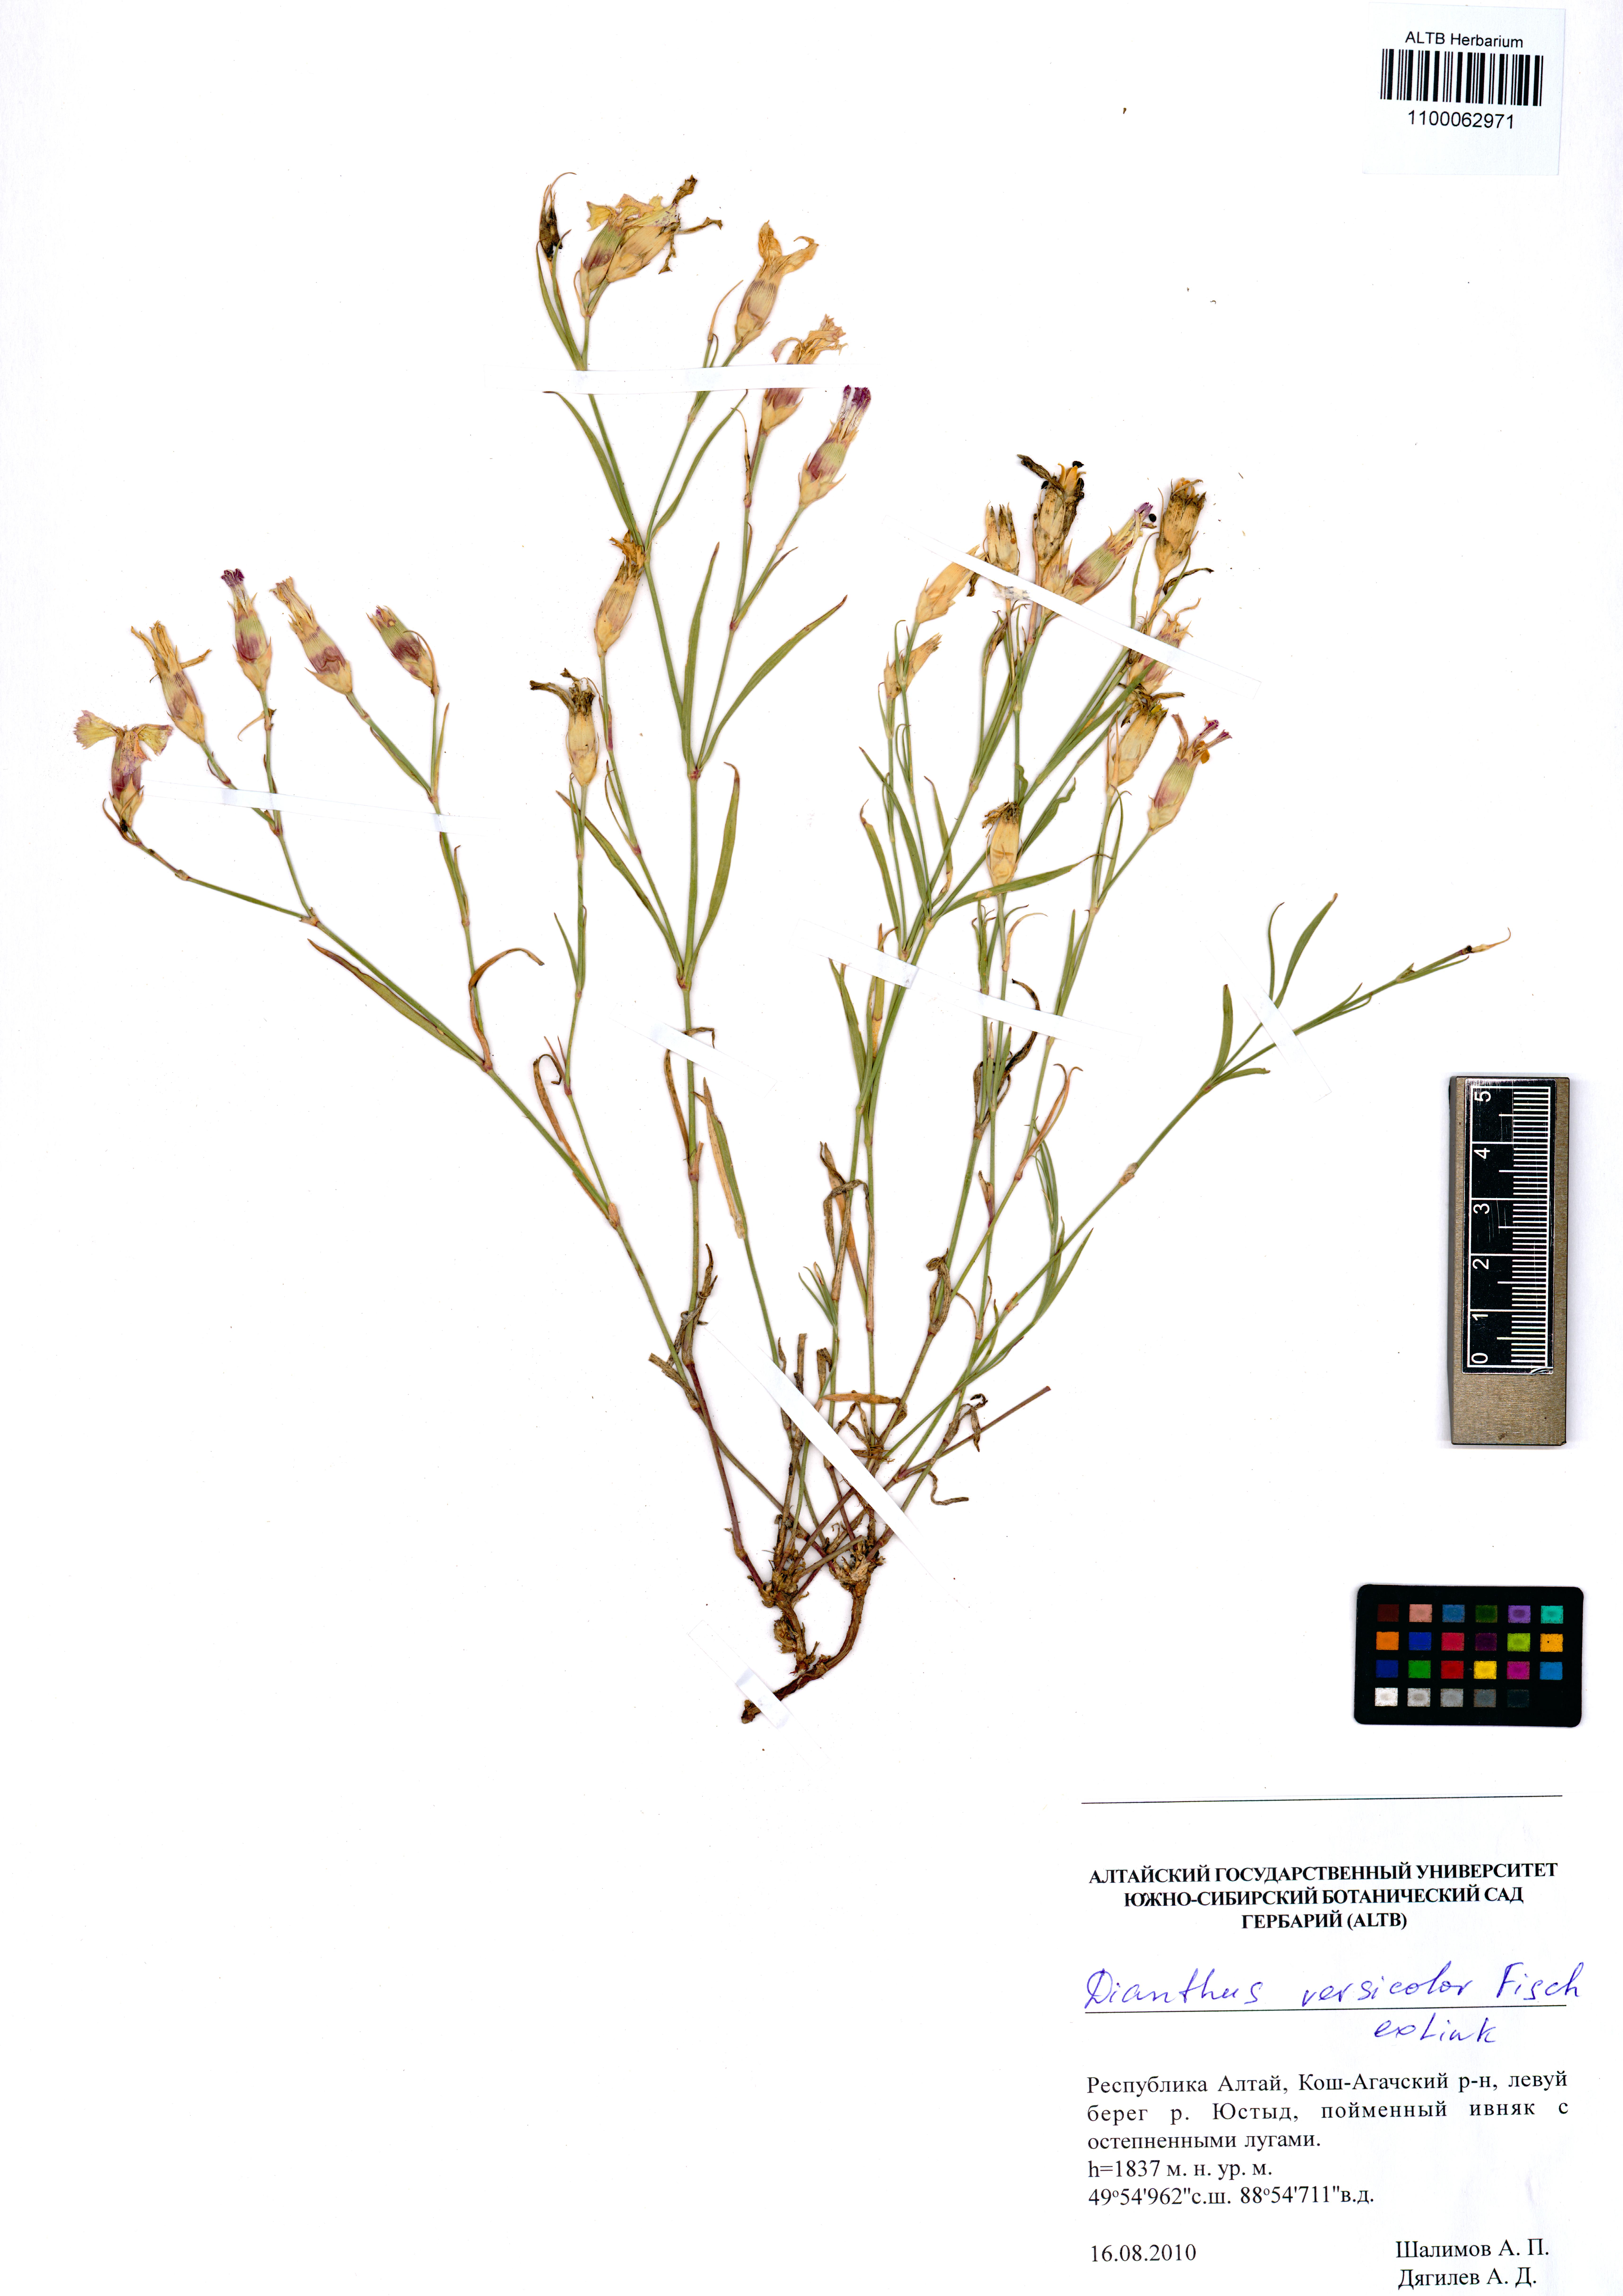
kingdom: Plantae
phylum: Tracheophyta
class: Magnoliopsida
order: Caryophyllales
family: Caryophyllaceae
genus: Dianthus
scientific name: Dianthus chinensis
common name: Rainbow pink
